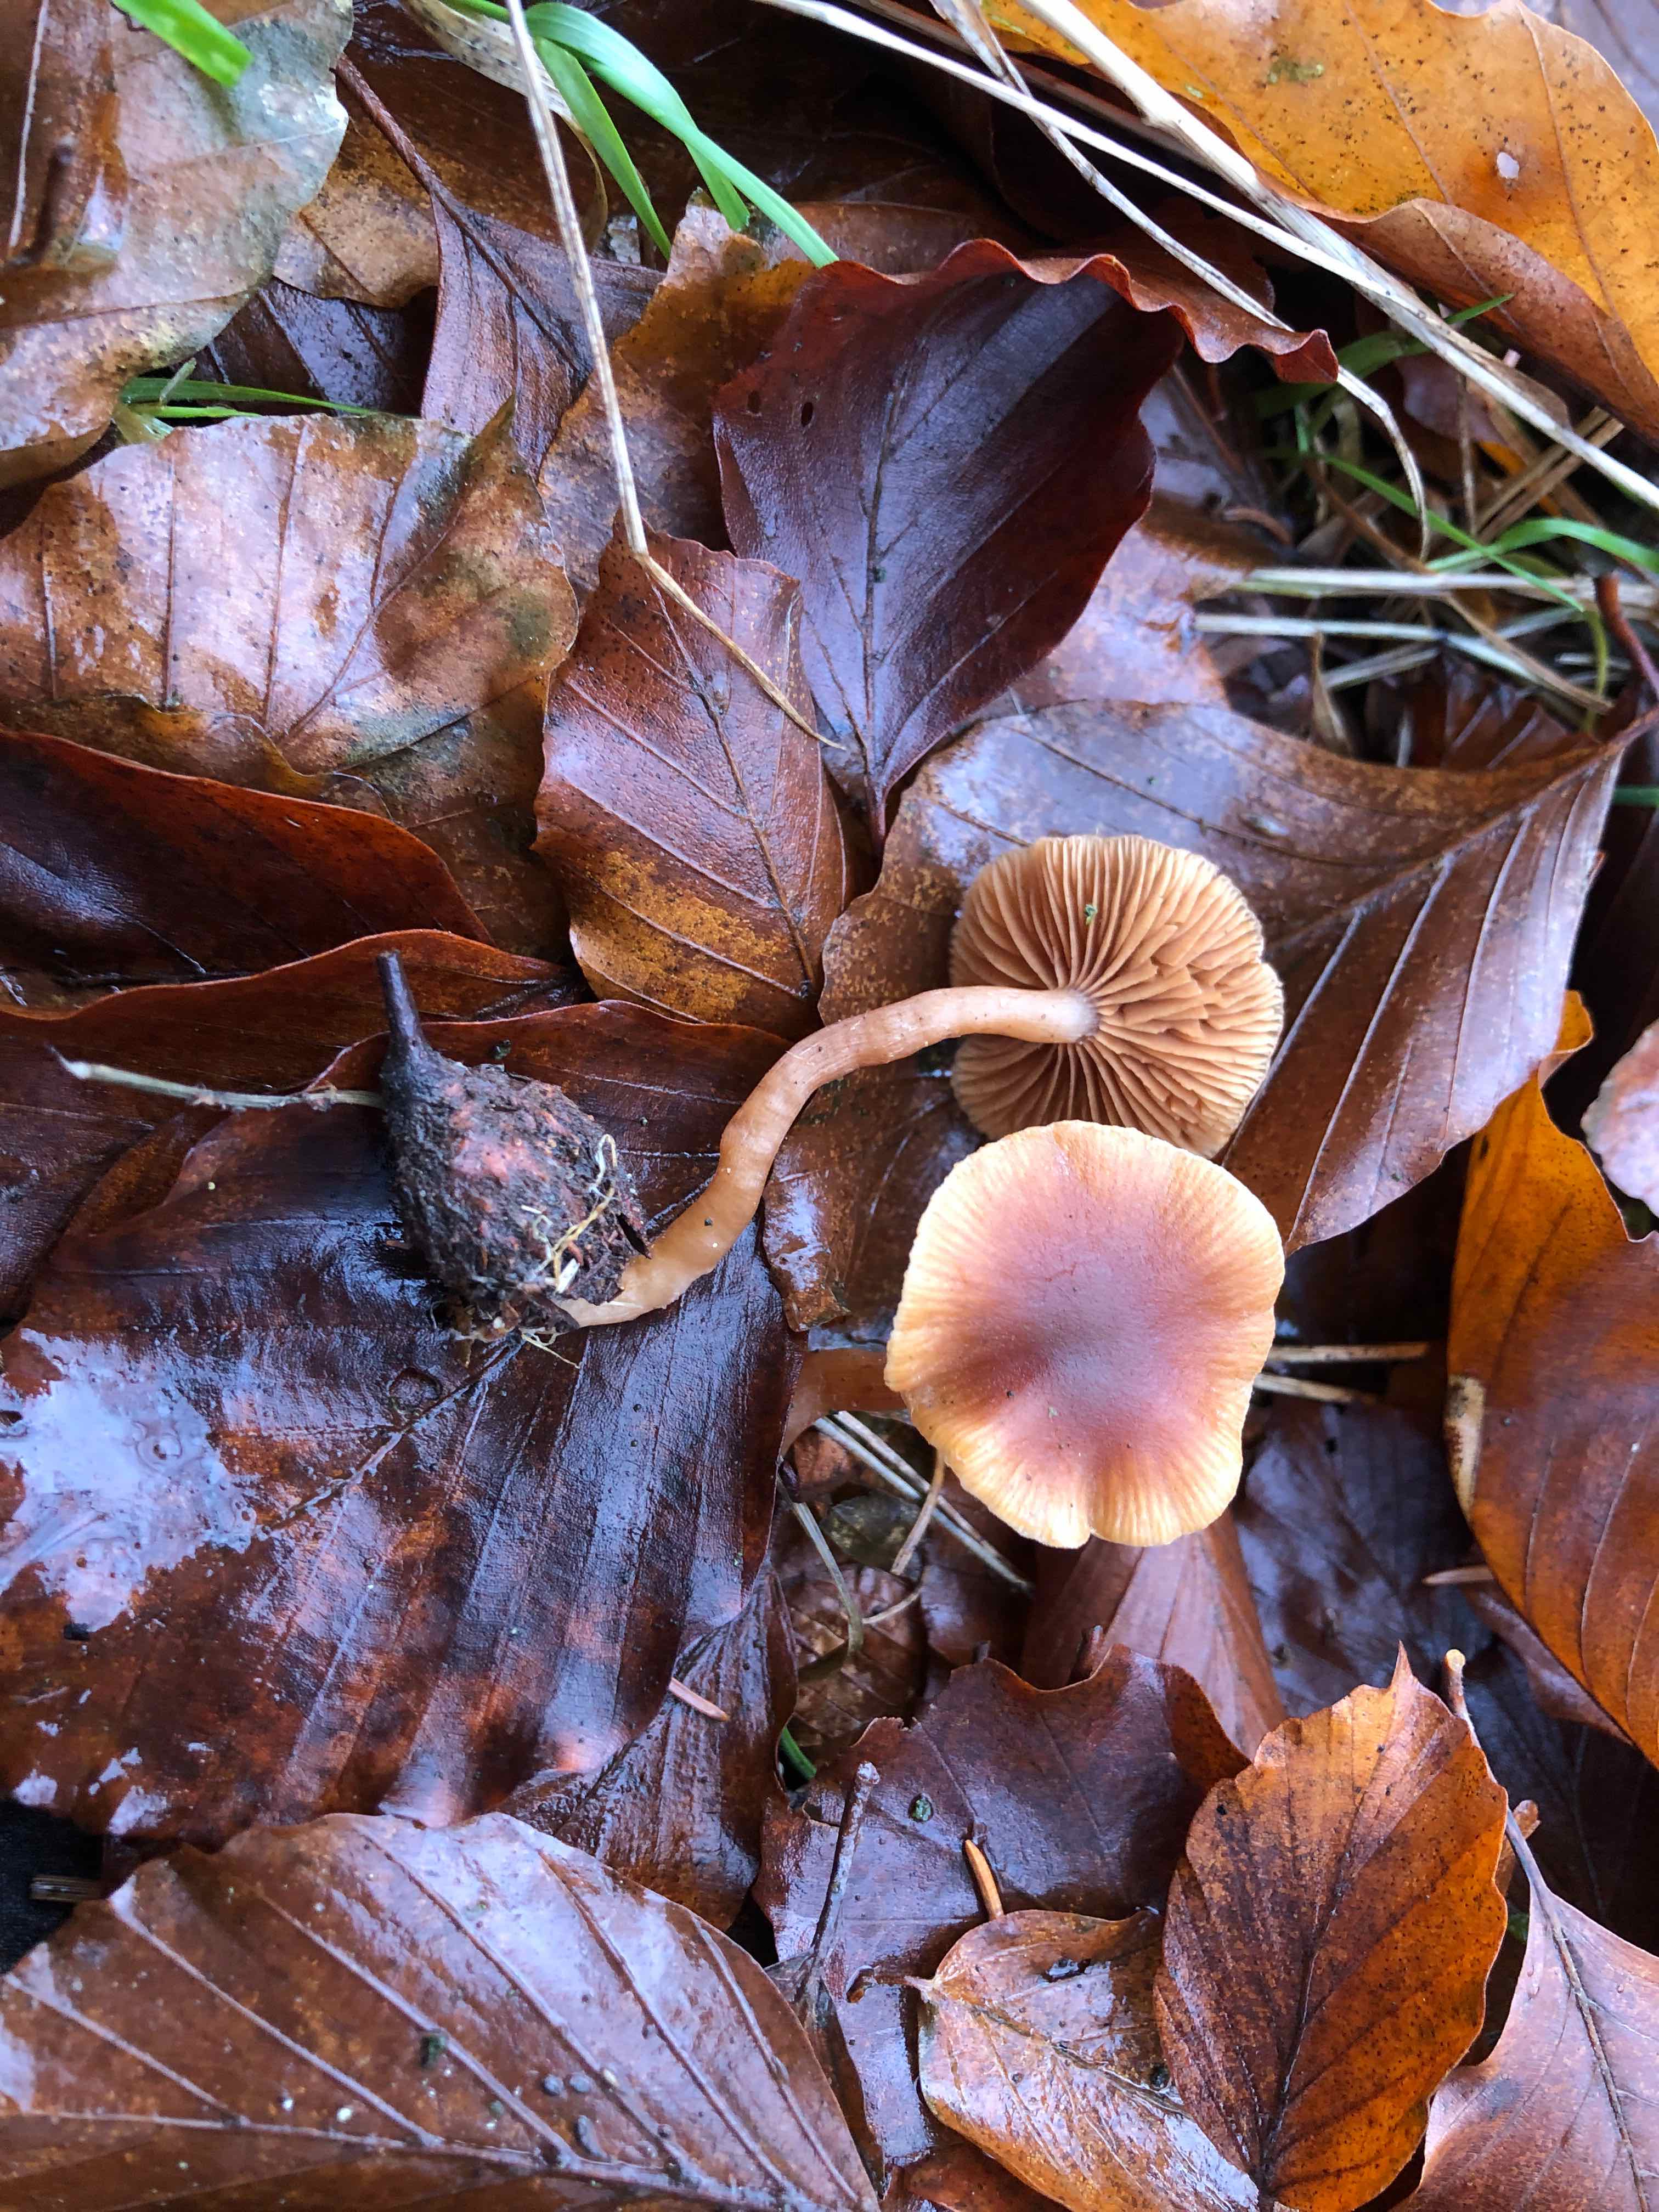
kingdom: Fungi
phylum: Basidiomycota
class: Agaricomycetes
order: Agaricales
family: Tubariaceae
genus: Tubaria
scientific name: Tubaria furfuracea
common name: kliddet fnughat
